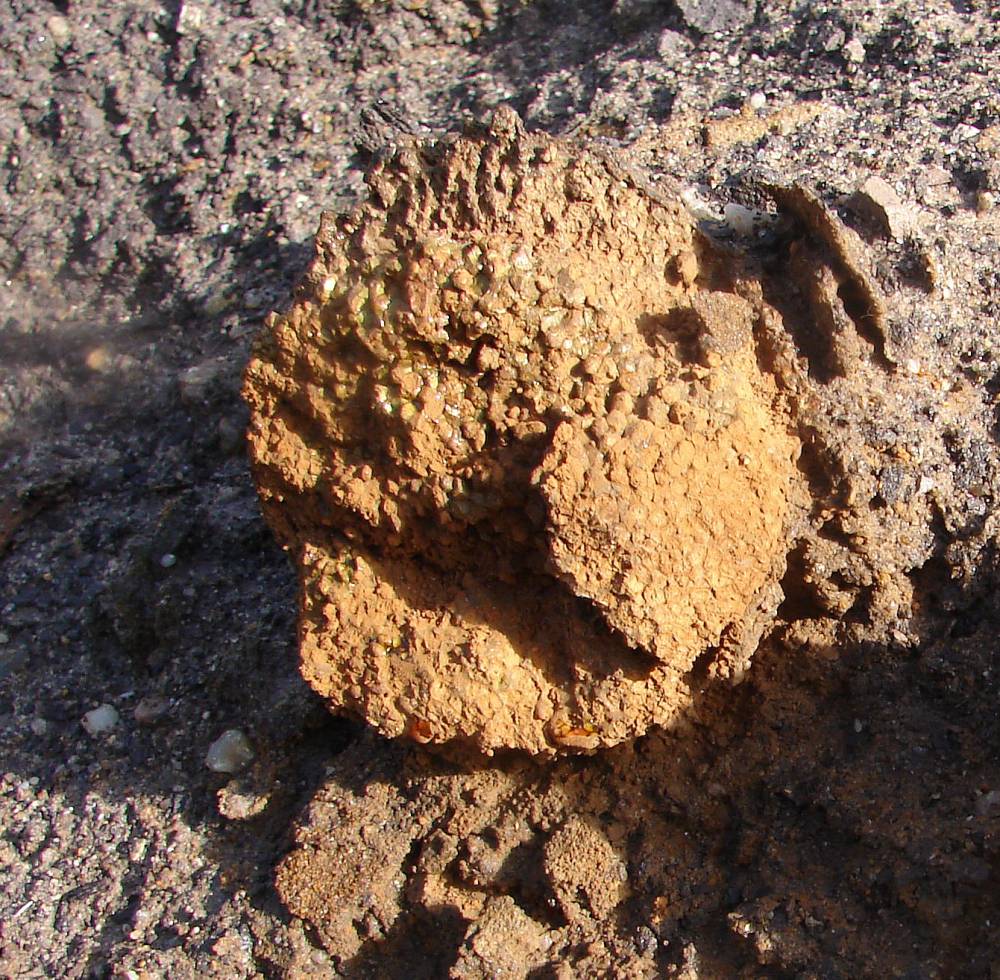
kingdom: Fungi
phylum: Basidiomycota
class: Agaricomycetes
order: Boletales
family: Sclerodermataceae
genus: Pisolithus
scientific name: Pisolithus capsulifer
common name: farvebold
